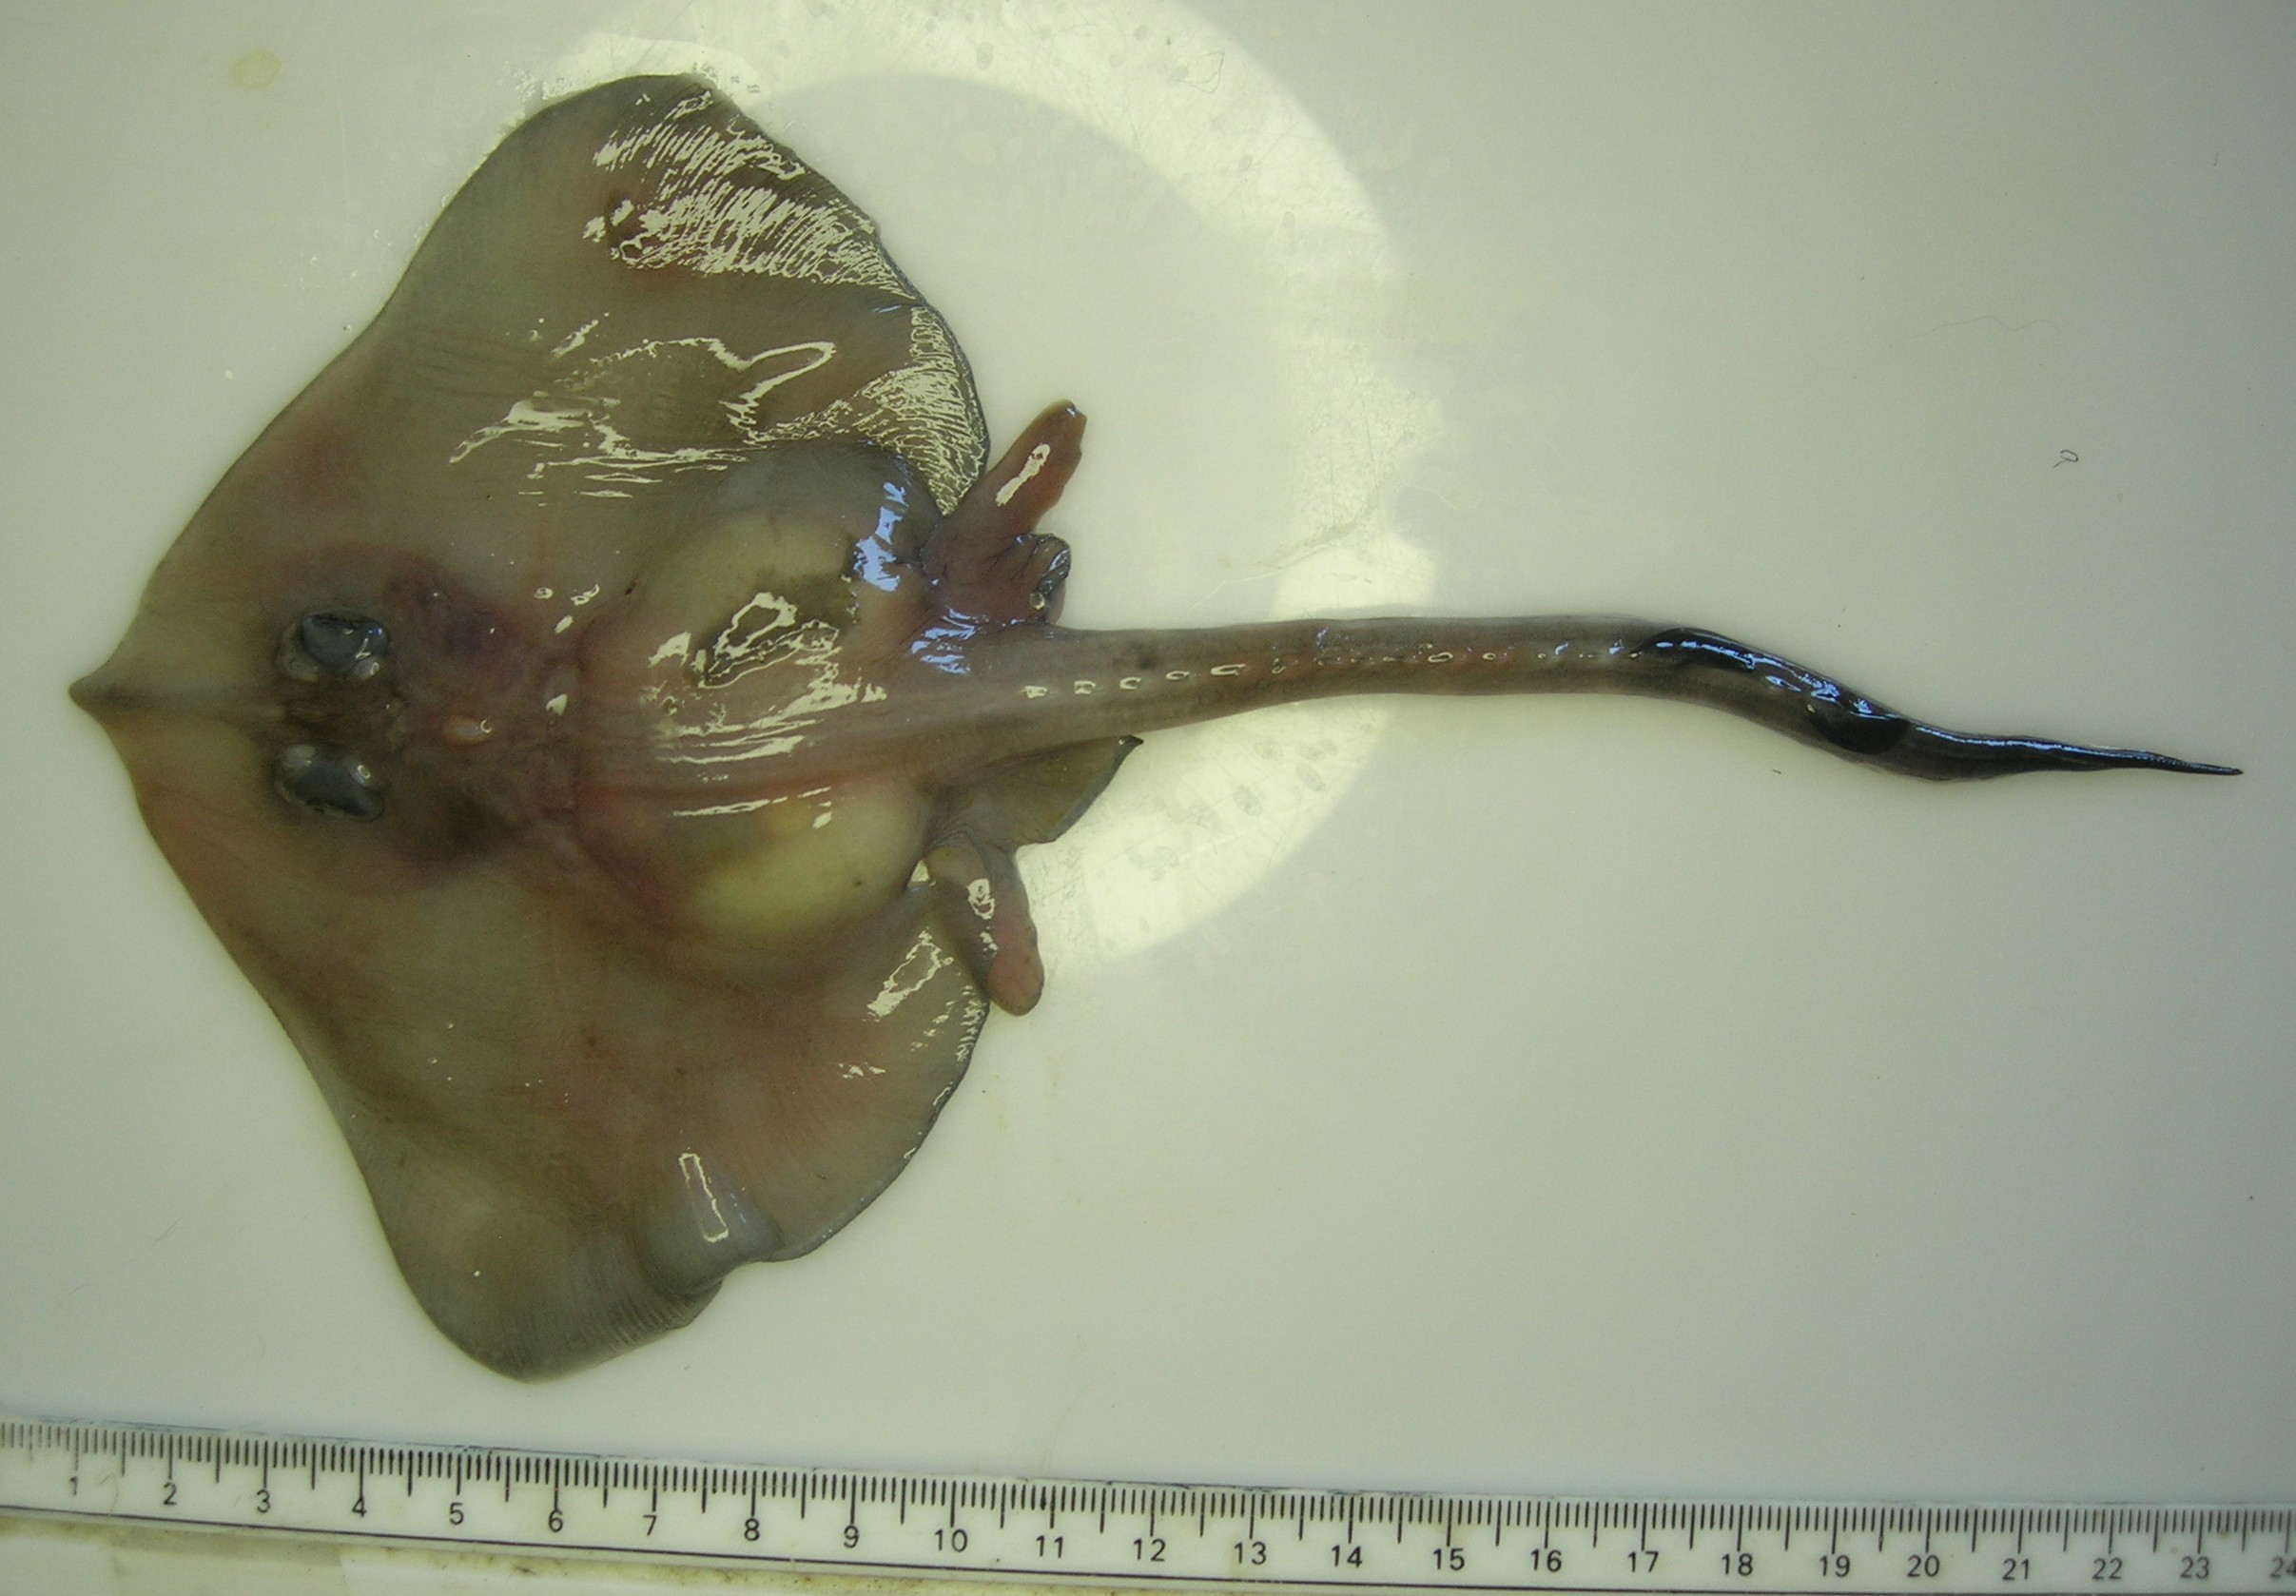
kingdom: Animalia
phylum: Chordata
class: Elasmobranchii
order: Rajiformes
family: Rajidae
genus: Raja
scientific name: Raja
